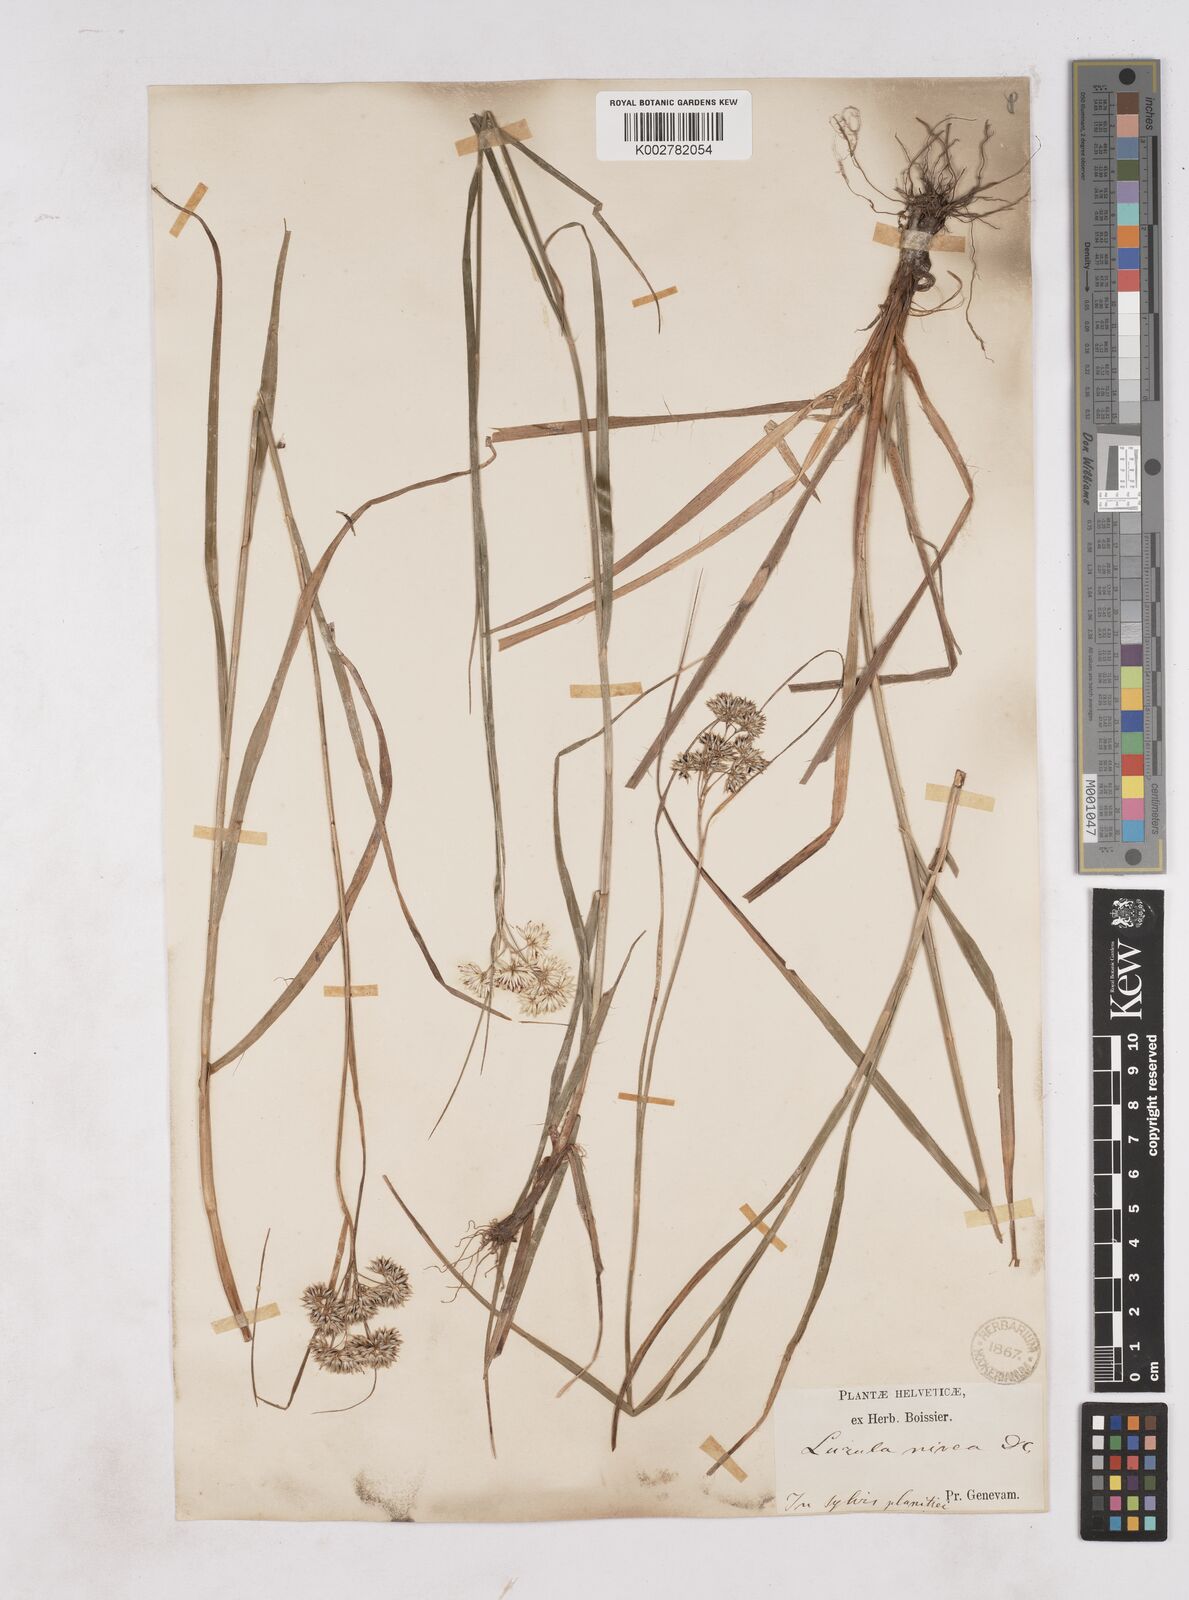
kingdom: Plantae
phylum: Tracheophyta
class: Liliopsida
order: Poales
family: Juncaceae
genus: Luzula
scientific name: Luzula nivea
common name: Snow-white wood-rush
